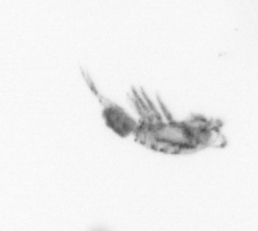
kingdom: Animalia
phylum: Arthropoda
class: Copepoda
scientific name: Copepoda
